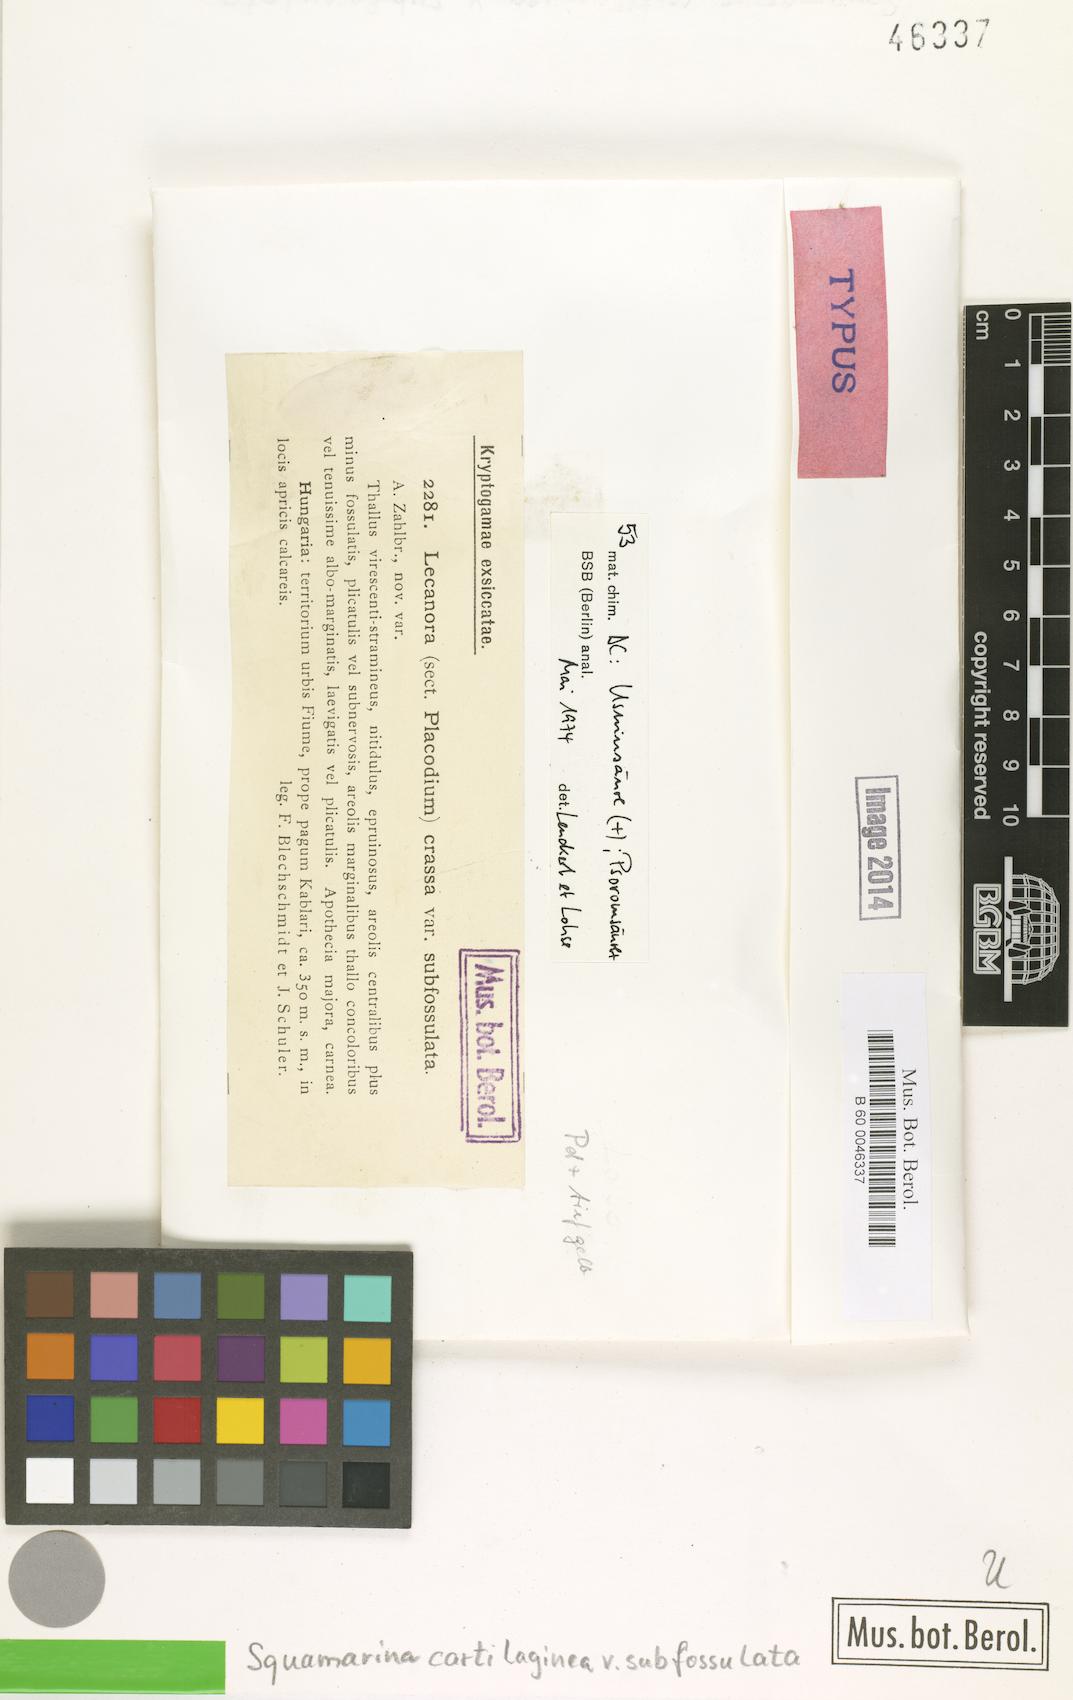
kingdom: Fungi
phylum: Ascomycota
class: Lecanoromycetes
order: Lecanorales
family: Stereocaulaceae
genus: Squamarina
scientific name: Squamarina cartilaginea
